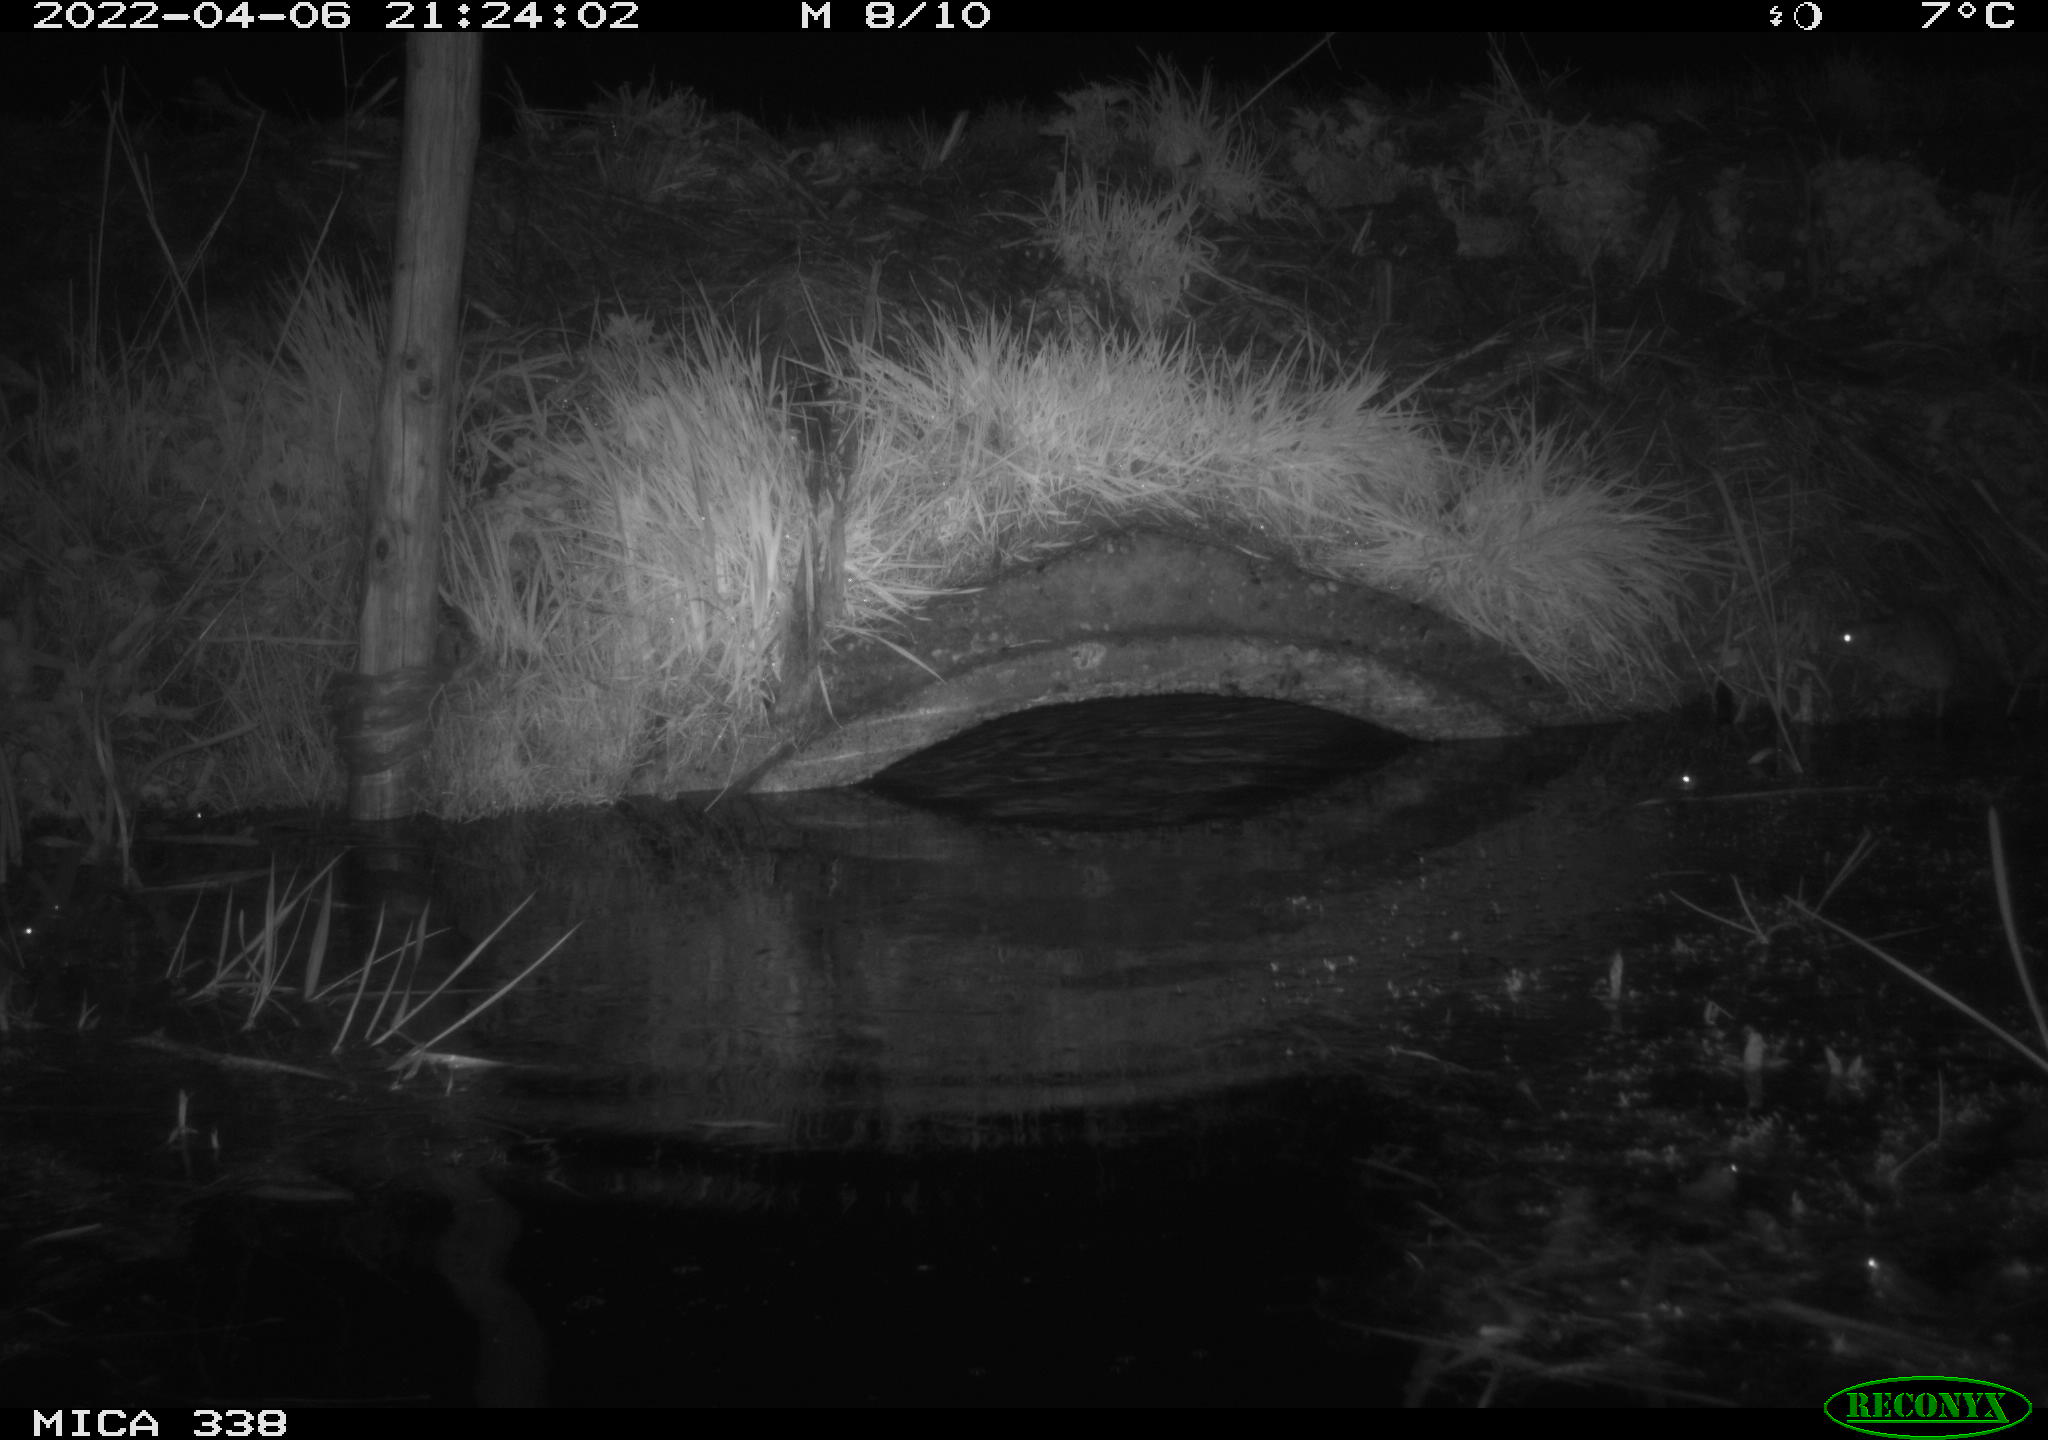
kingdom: Animalia
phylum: Chordata
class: Mammalia
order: Rodentia
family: Muridae
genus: Rattus
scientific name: Rattus norvegicus
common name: Brown rat
